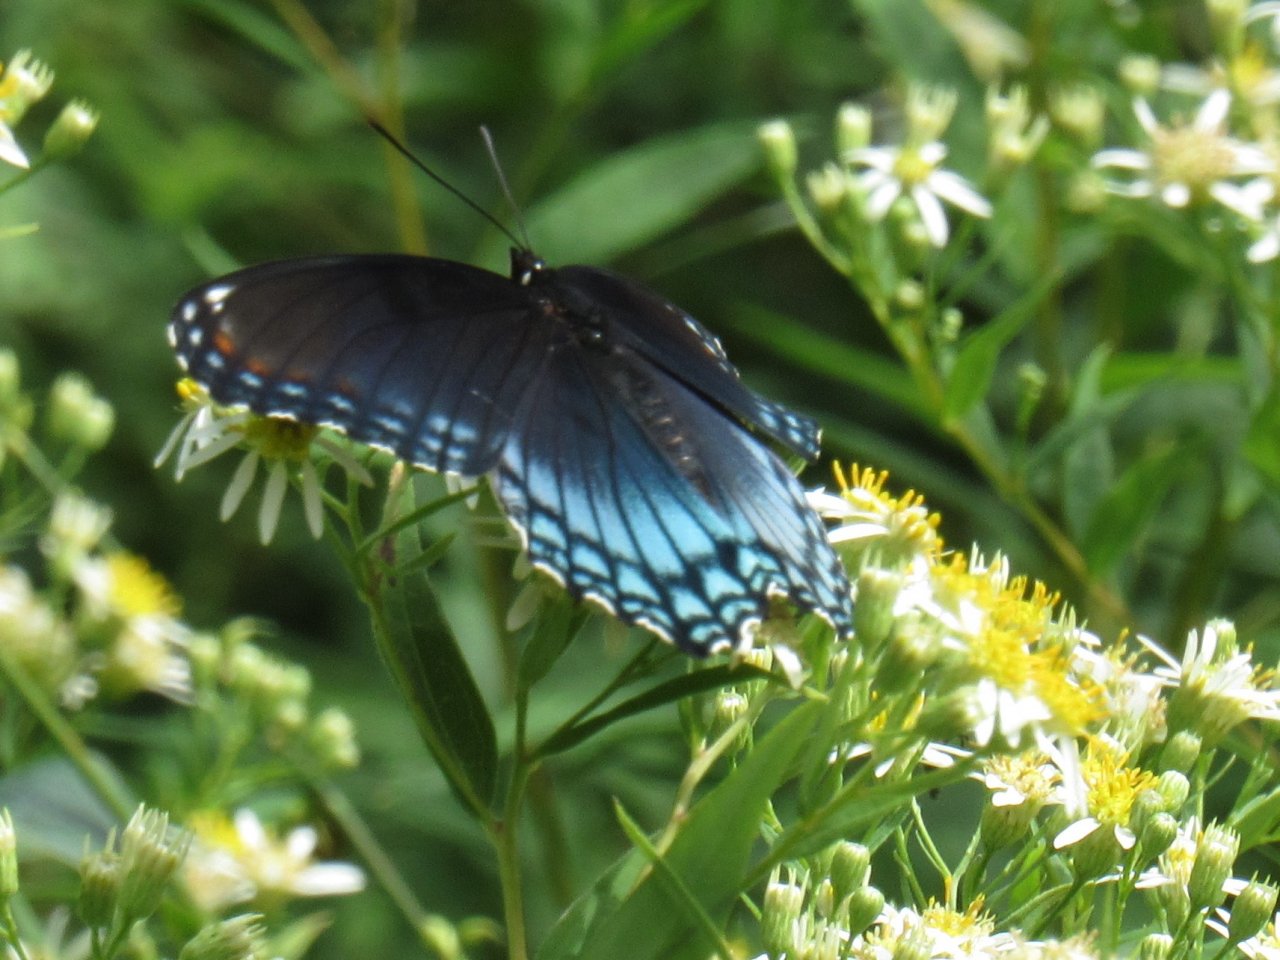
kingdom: Animalia
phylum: Arthropoda
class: Insecta
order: Lepidoptera
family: Nymphalidae
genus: Limenitis
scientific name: Limenitis astyanax
